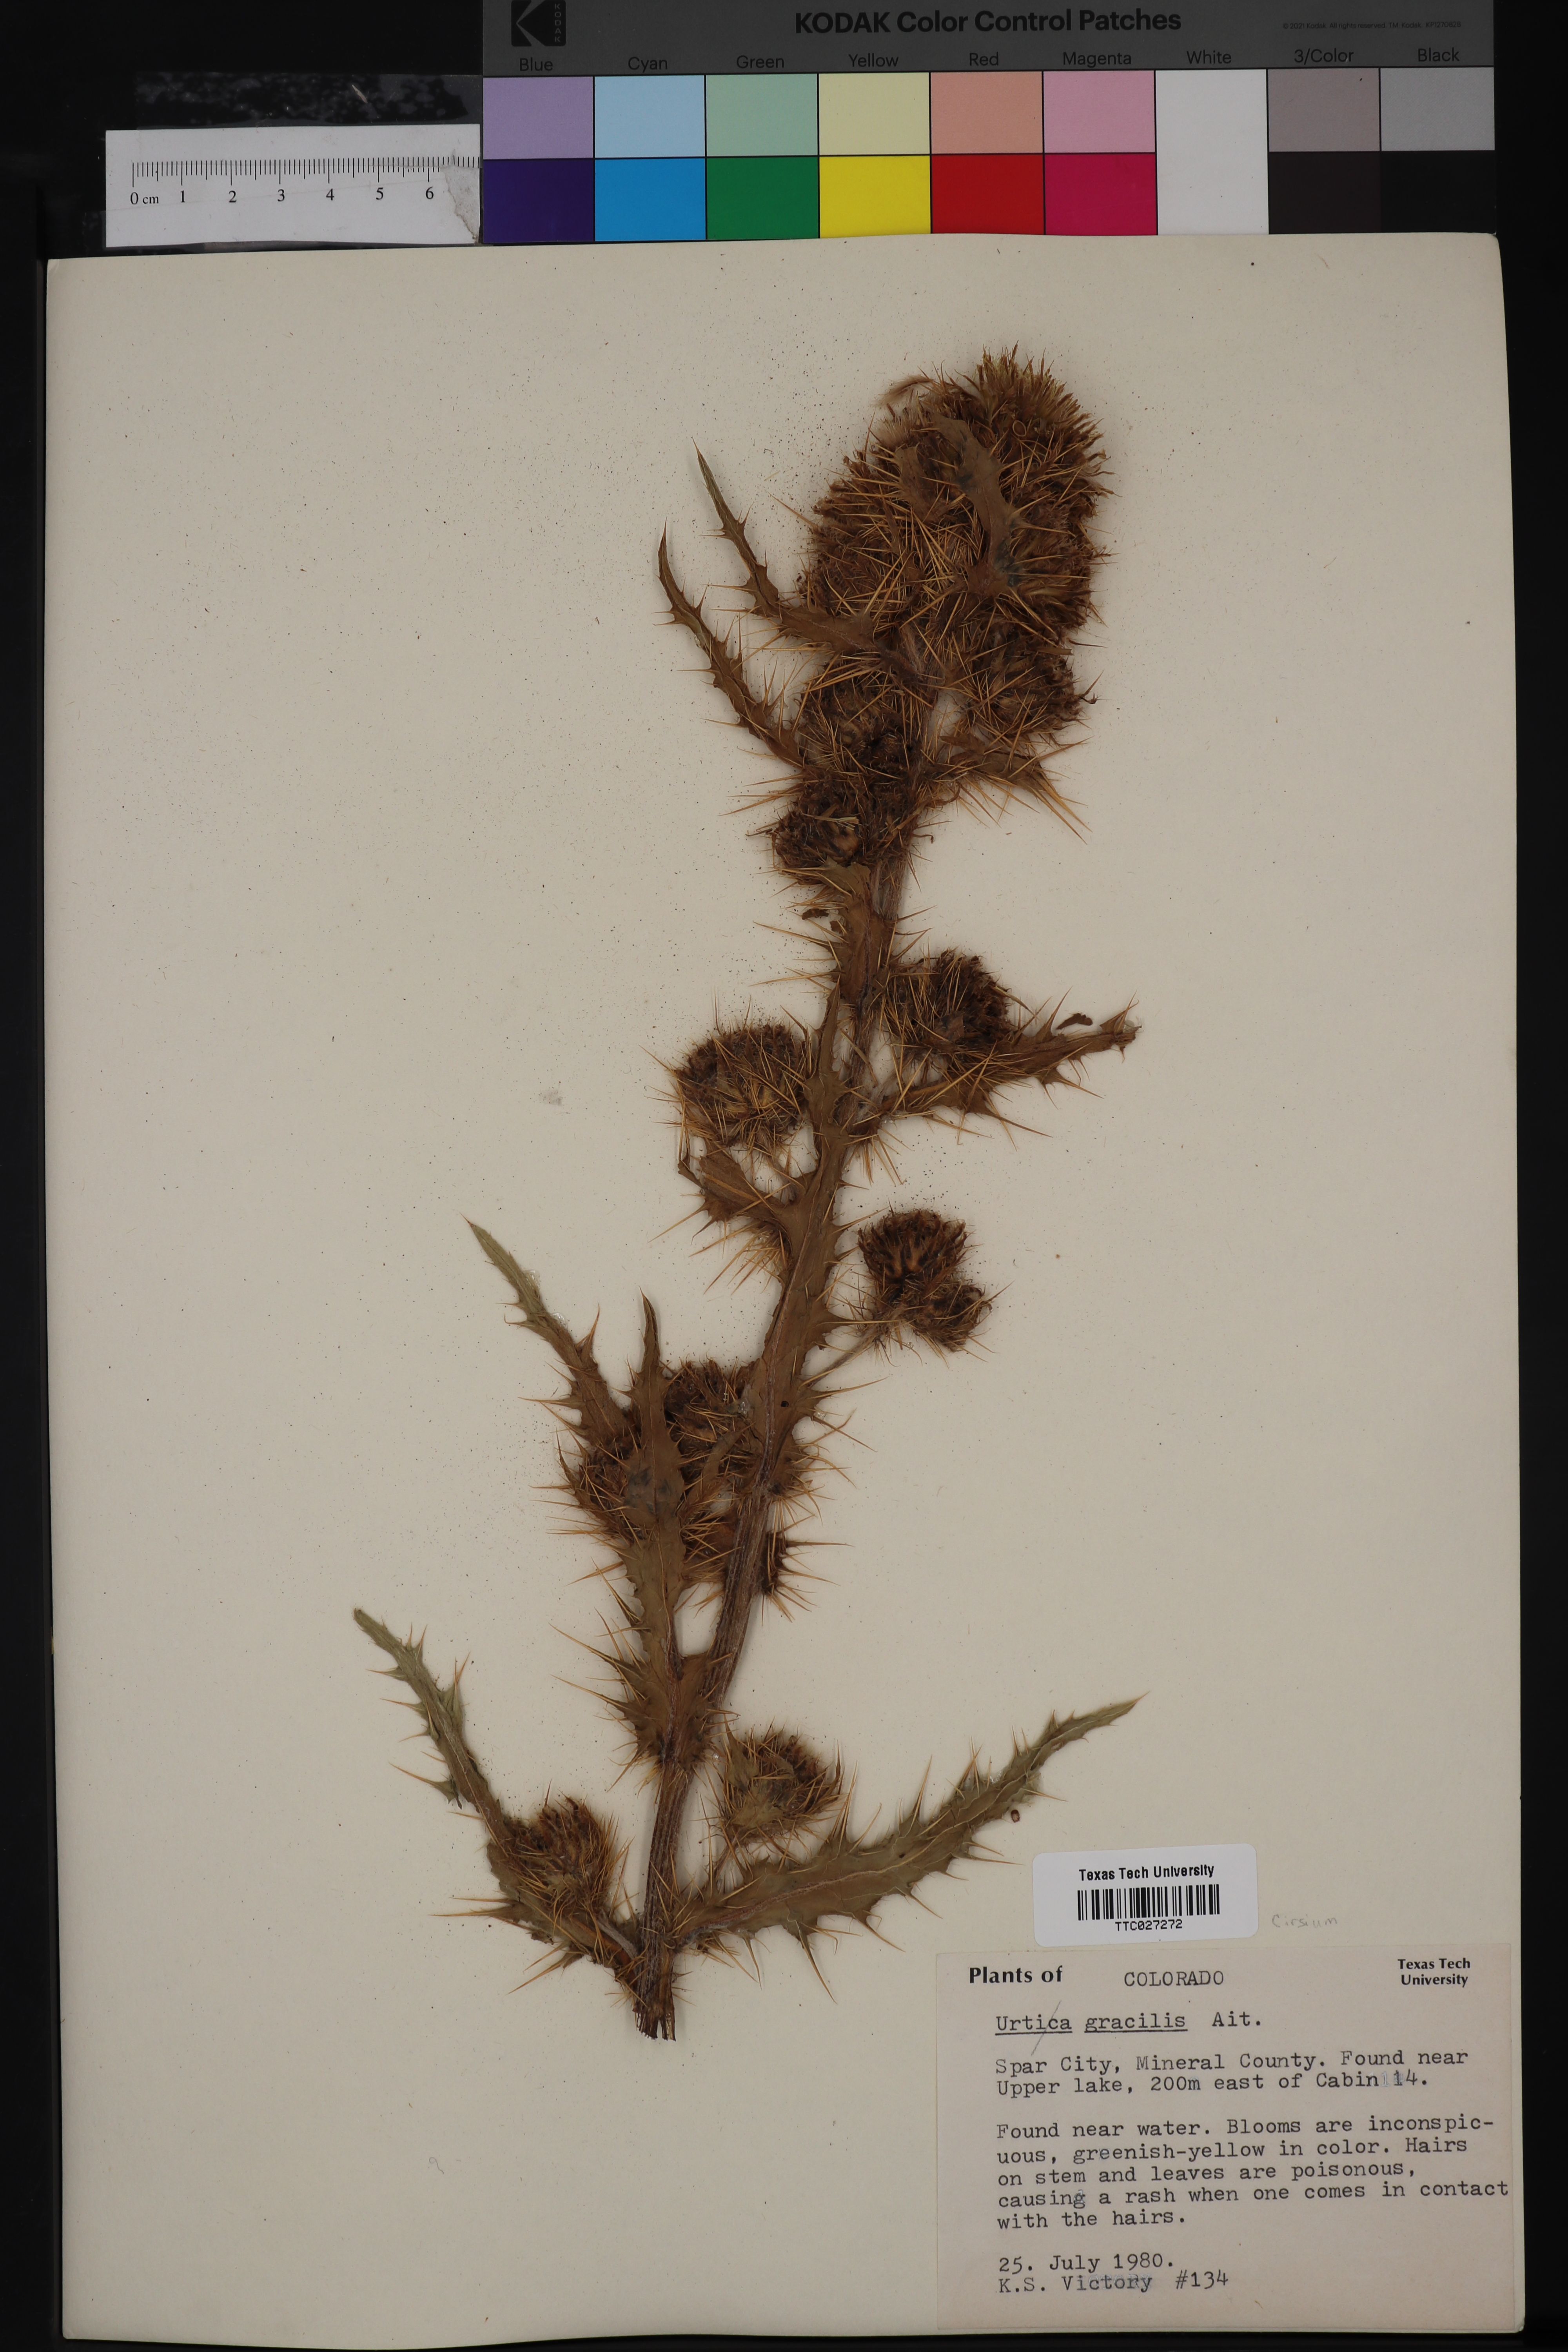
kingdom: Plantae
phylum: Tracheophyta
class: Magnoliopsida
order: Rosales
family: Urticaceae
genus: Urtica
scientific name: Urtica gracilis
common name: Slender stinging nettle
